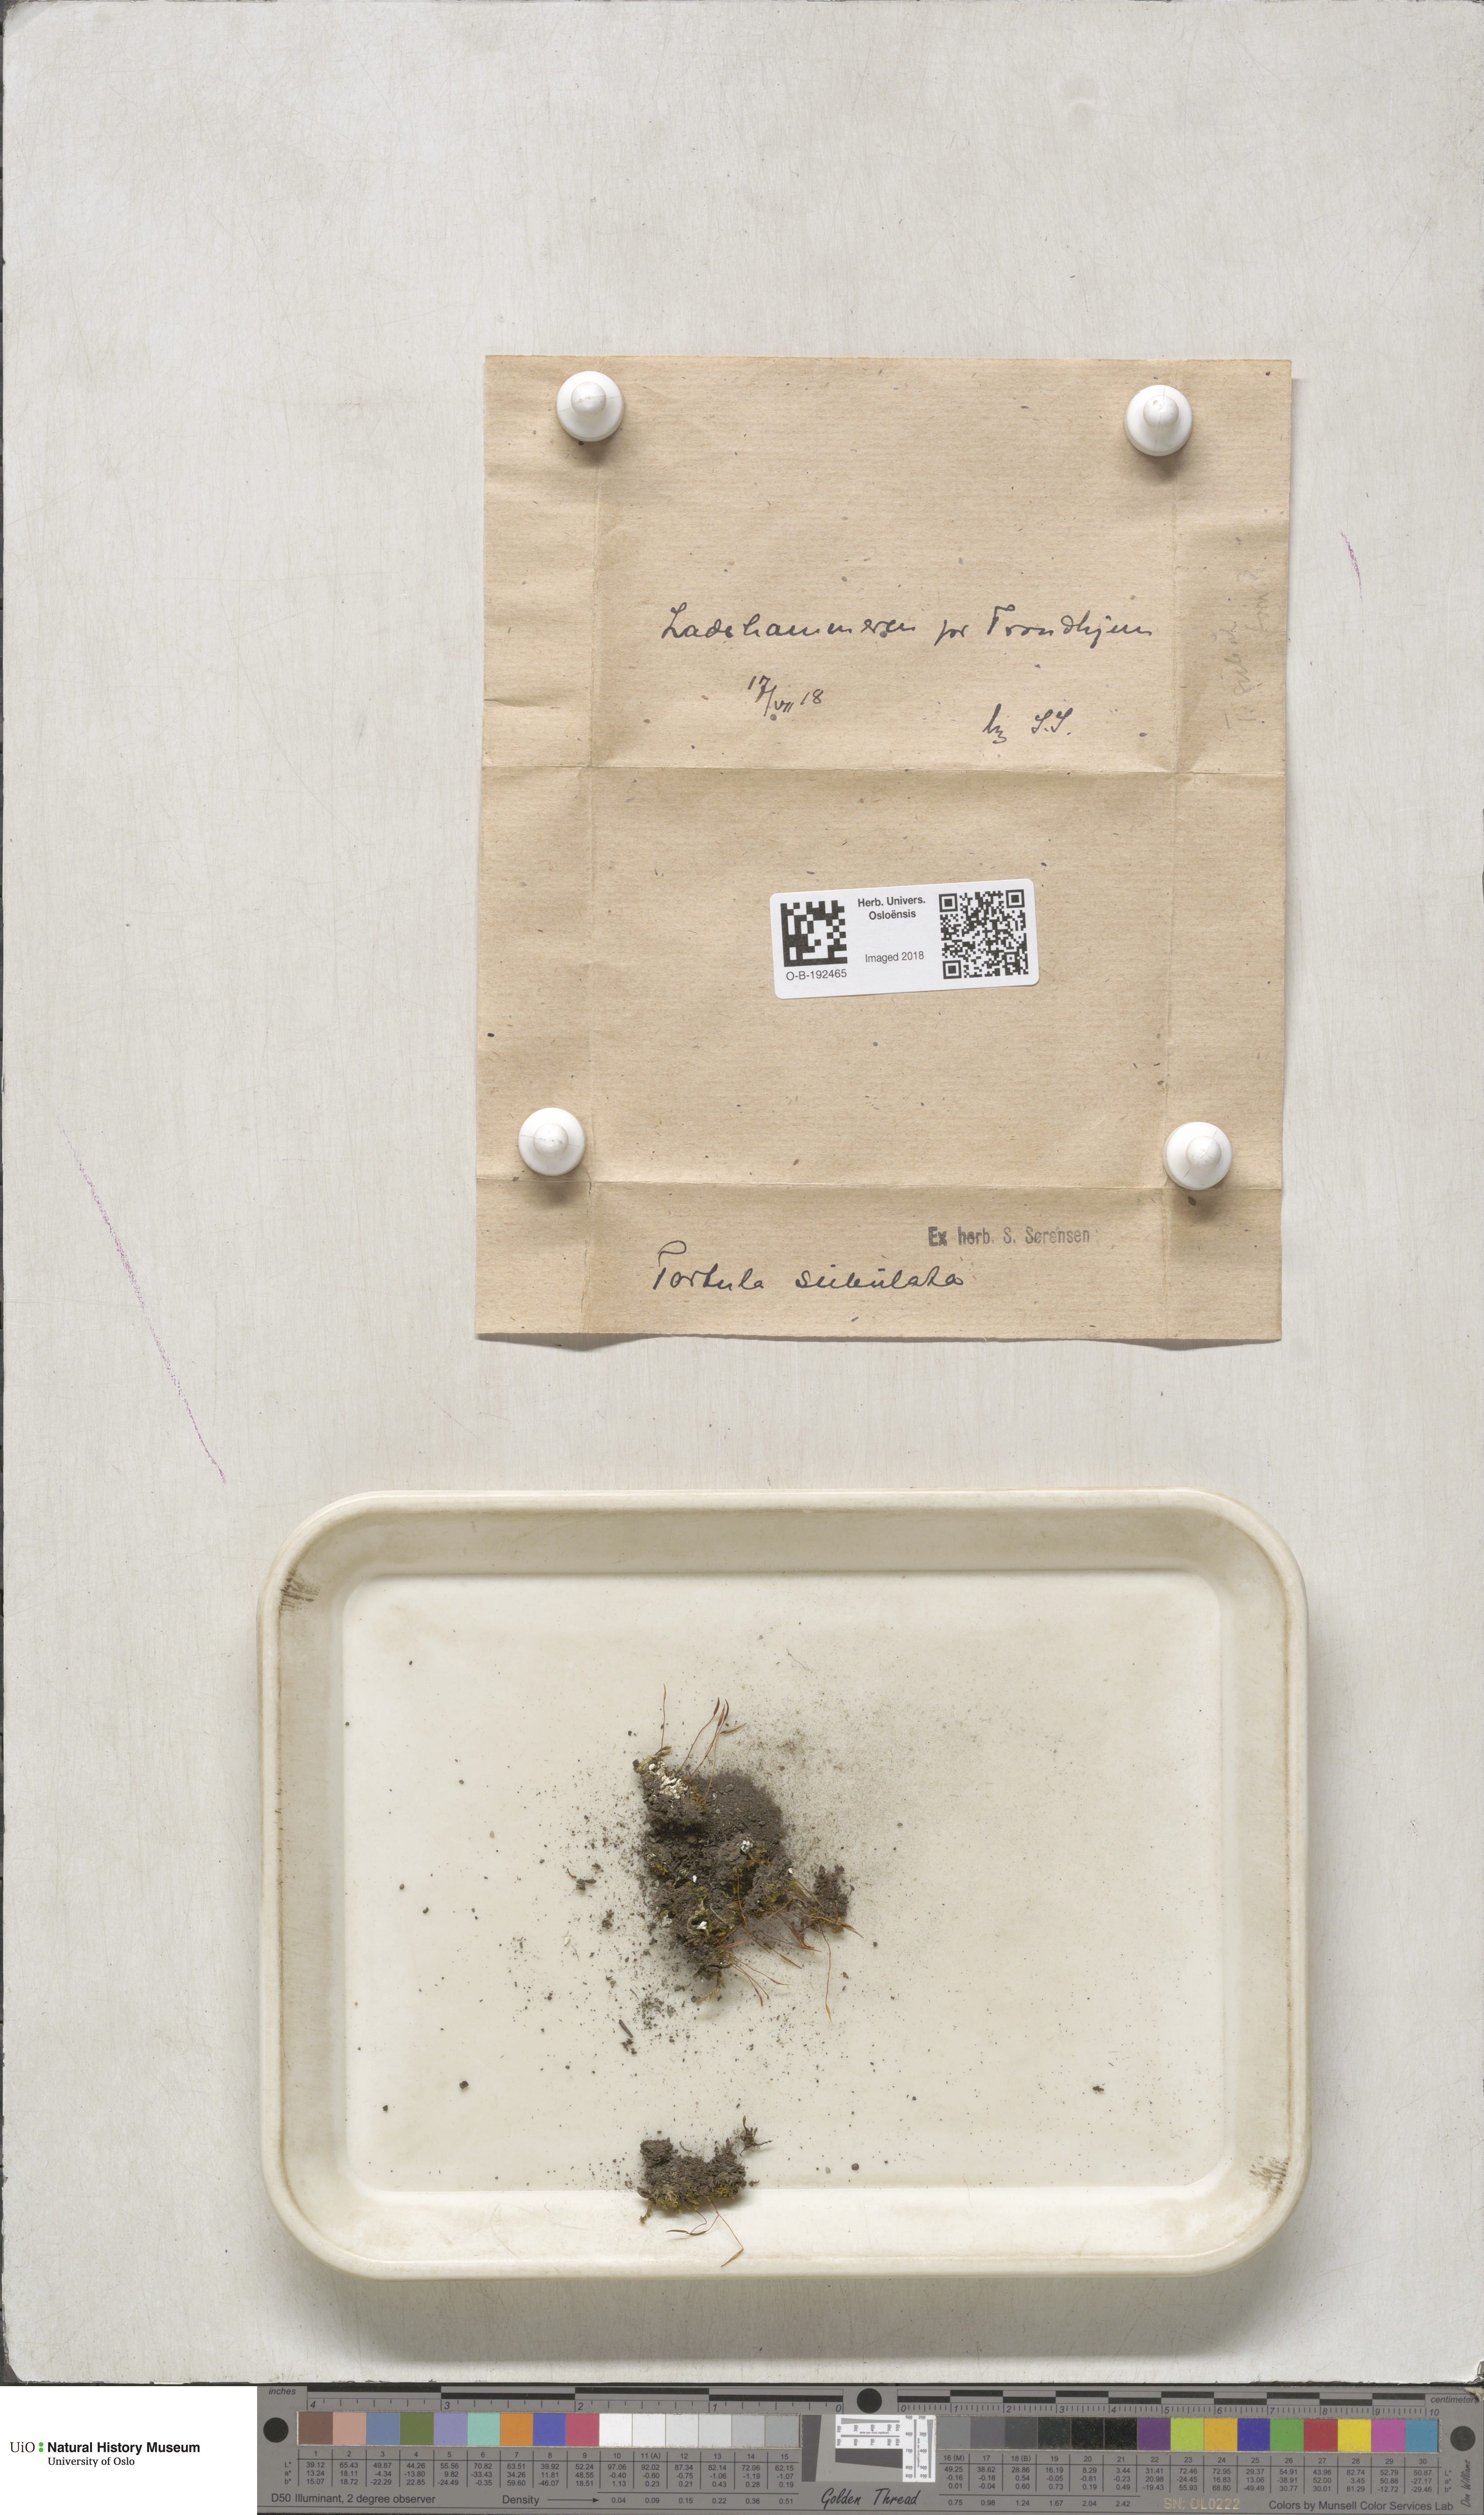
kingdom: Plantae
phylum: Bryophyta
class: Bryopsida
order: Pottiales
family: Pottiaceae
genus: Tortula
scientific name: Tortula subulata
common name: Upright screw-moss
